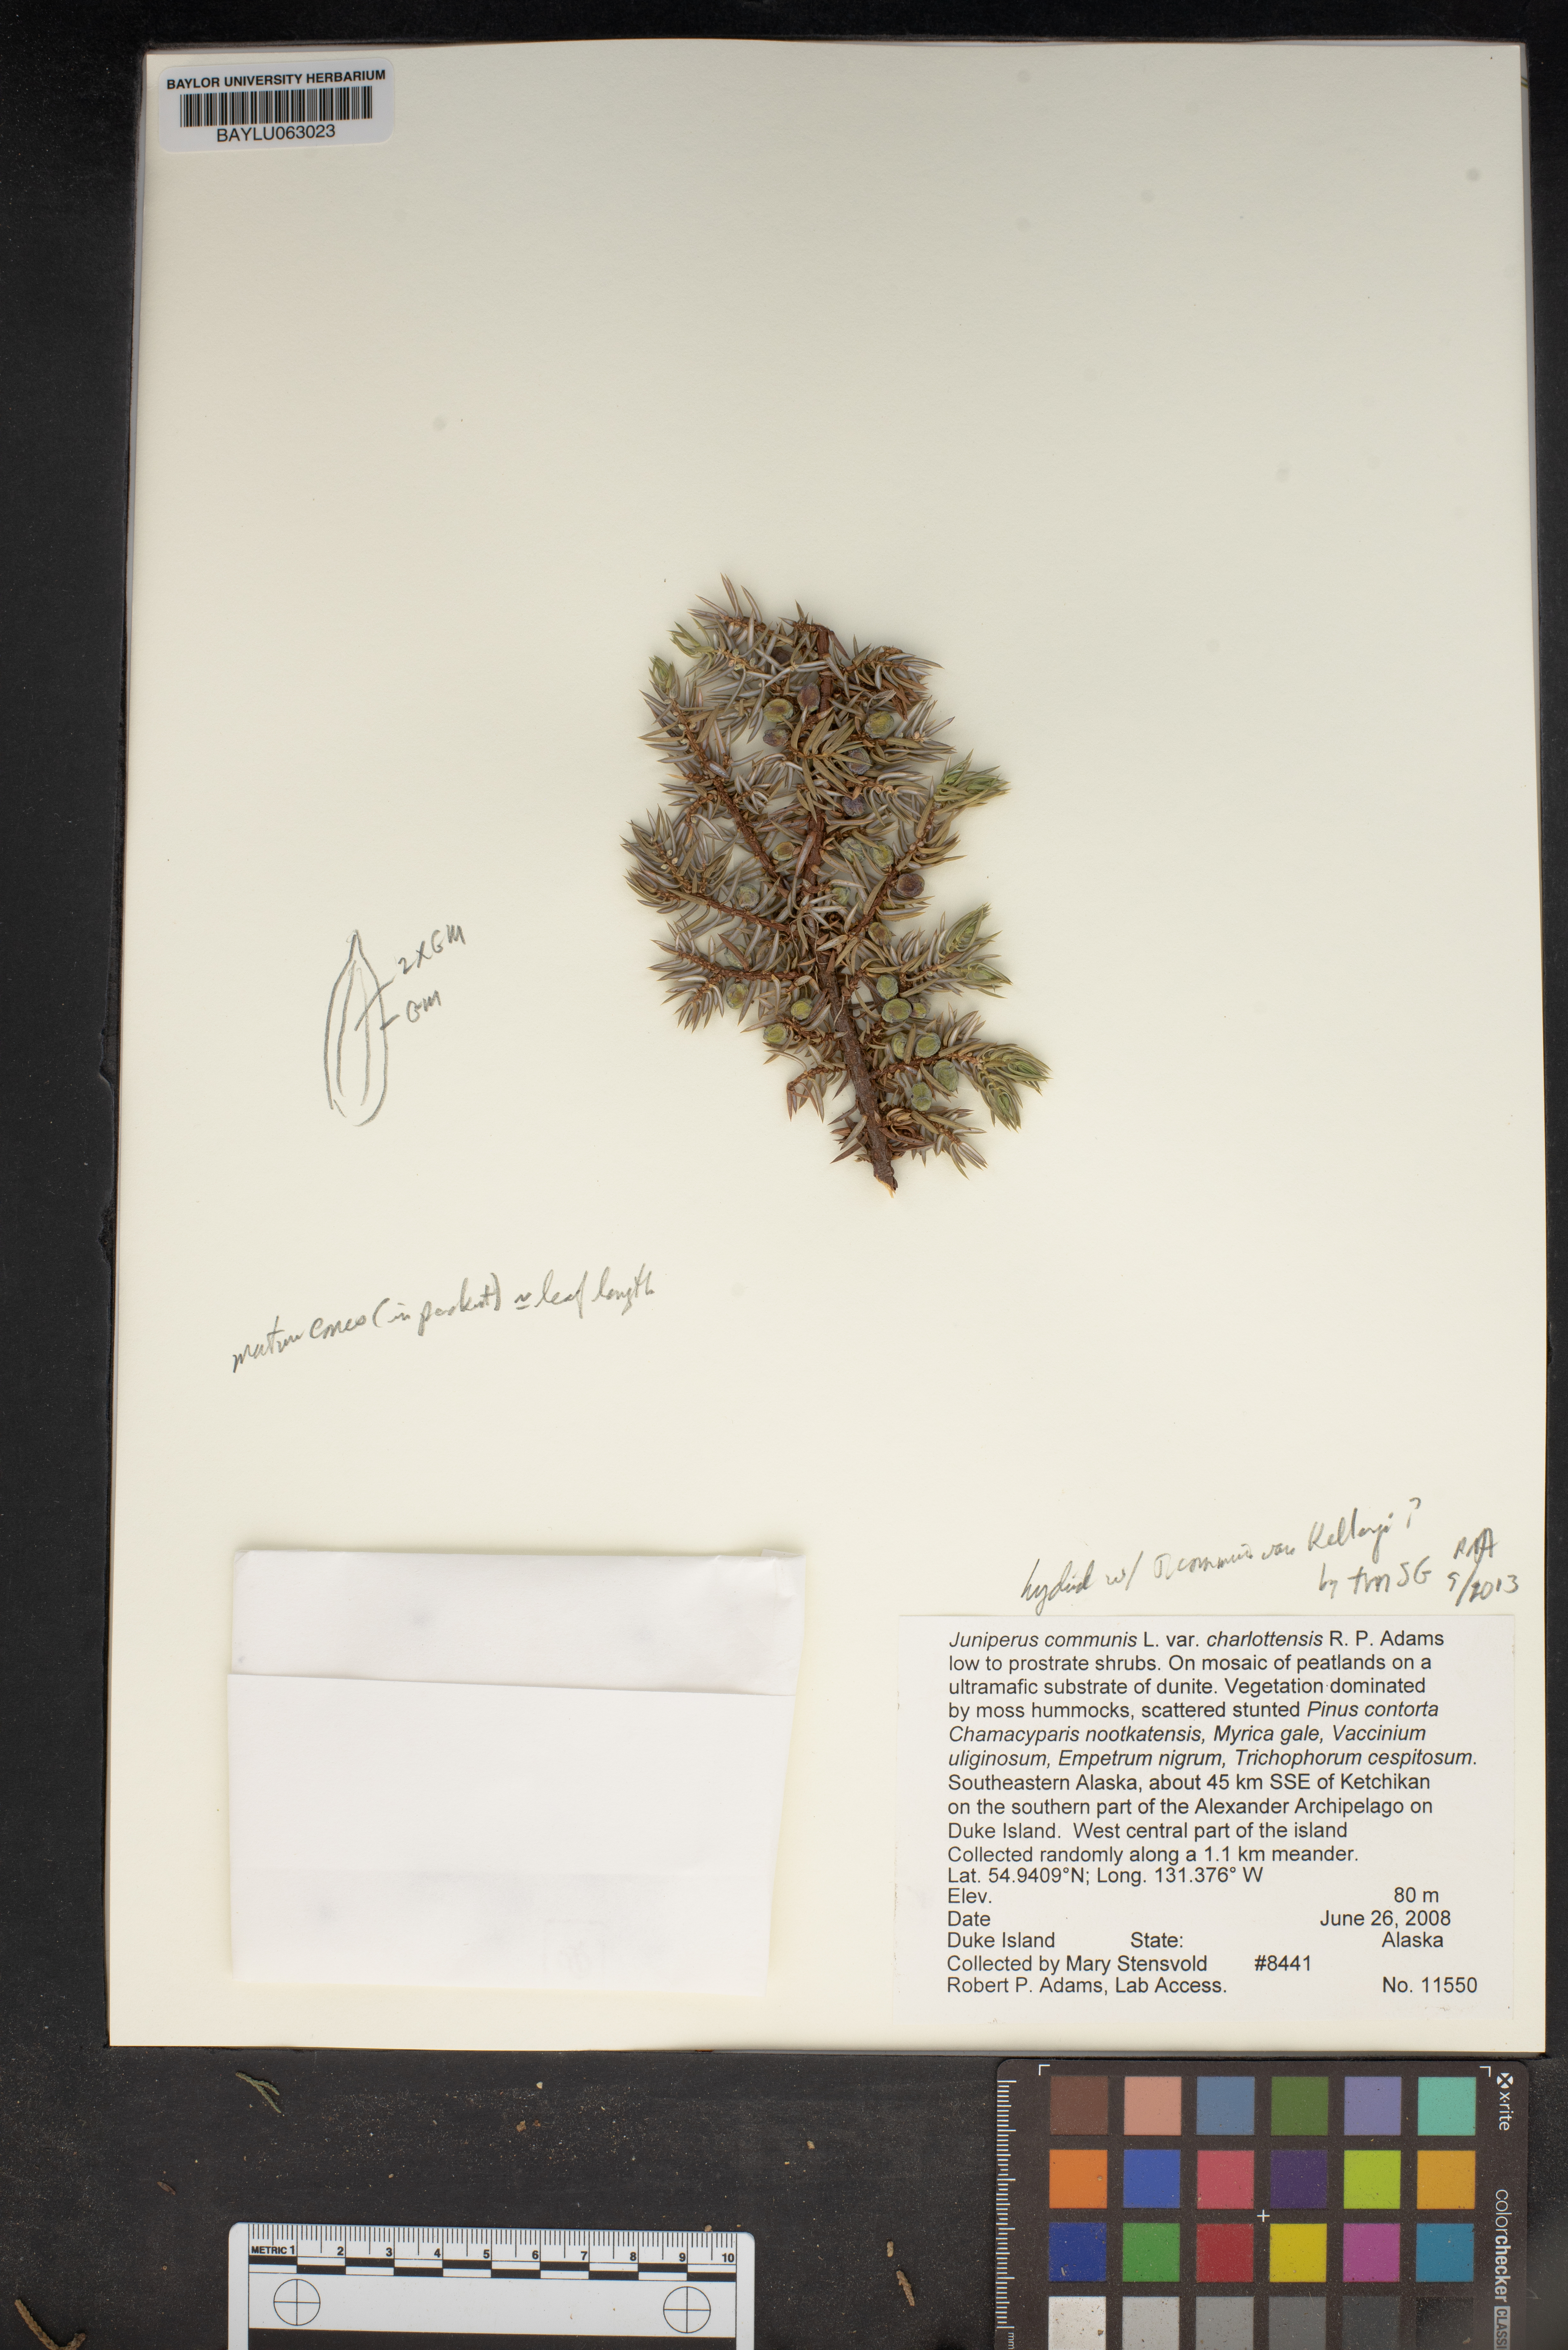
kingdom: Plantae
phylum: Tracheophyta
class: Pinopsida
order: Pinales
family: Cupressaceae
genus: Juniperus
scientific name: Juniperus communis
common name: Common juniper
